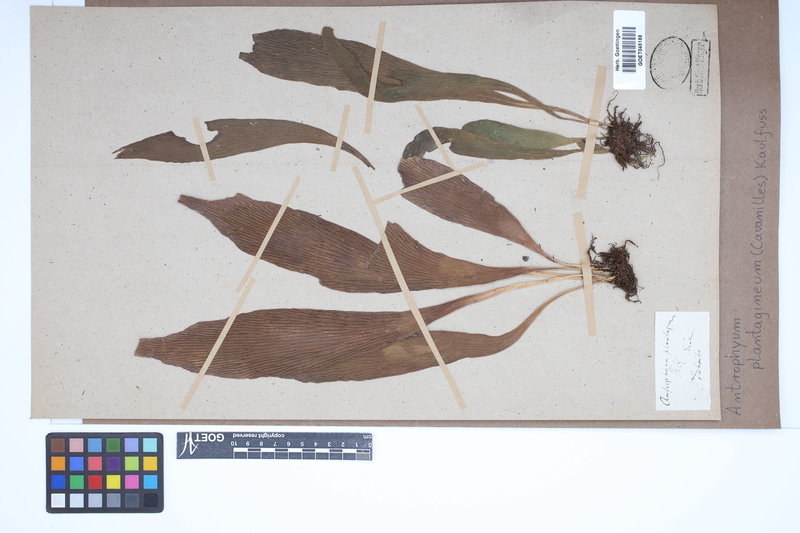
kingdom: Plantae
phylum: Tracheophyta
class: Polypodiopsida
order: Polypodiales
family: Pteridaceae
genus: Antrophyum
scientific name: Antrophyum plantagineum
